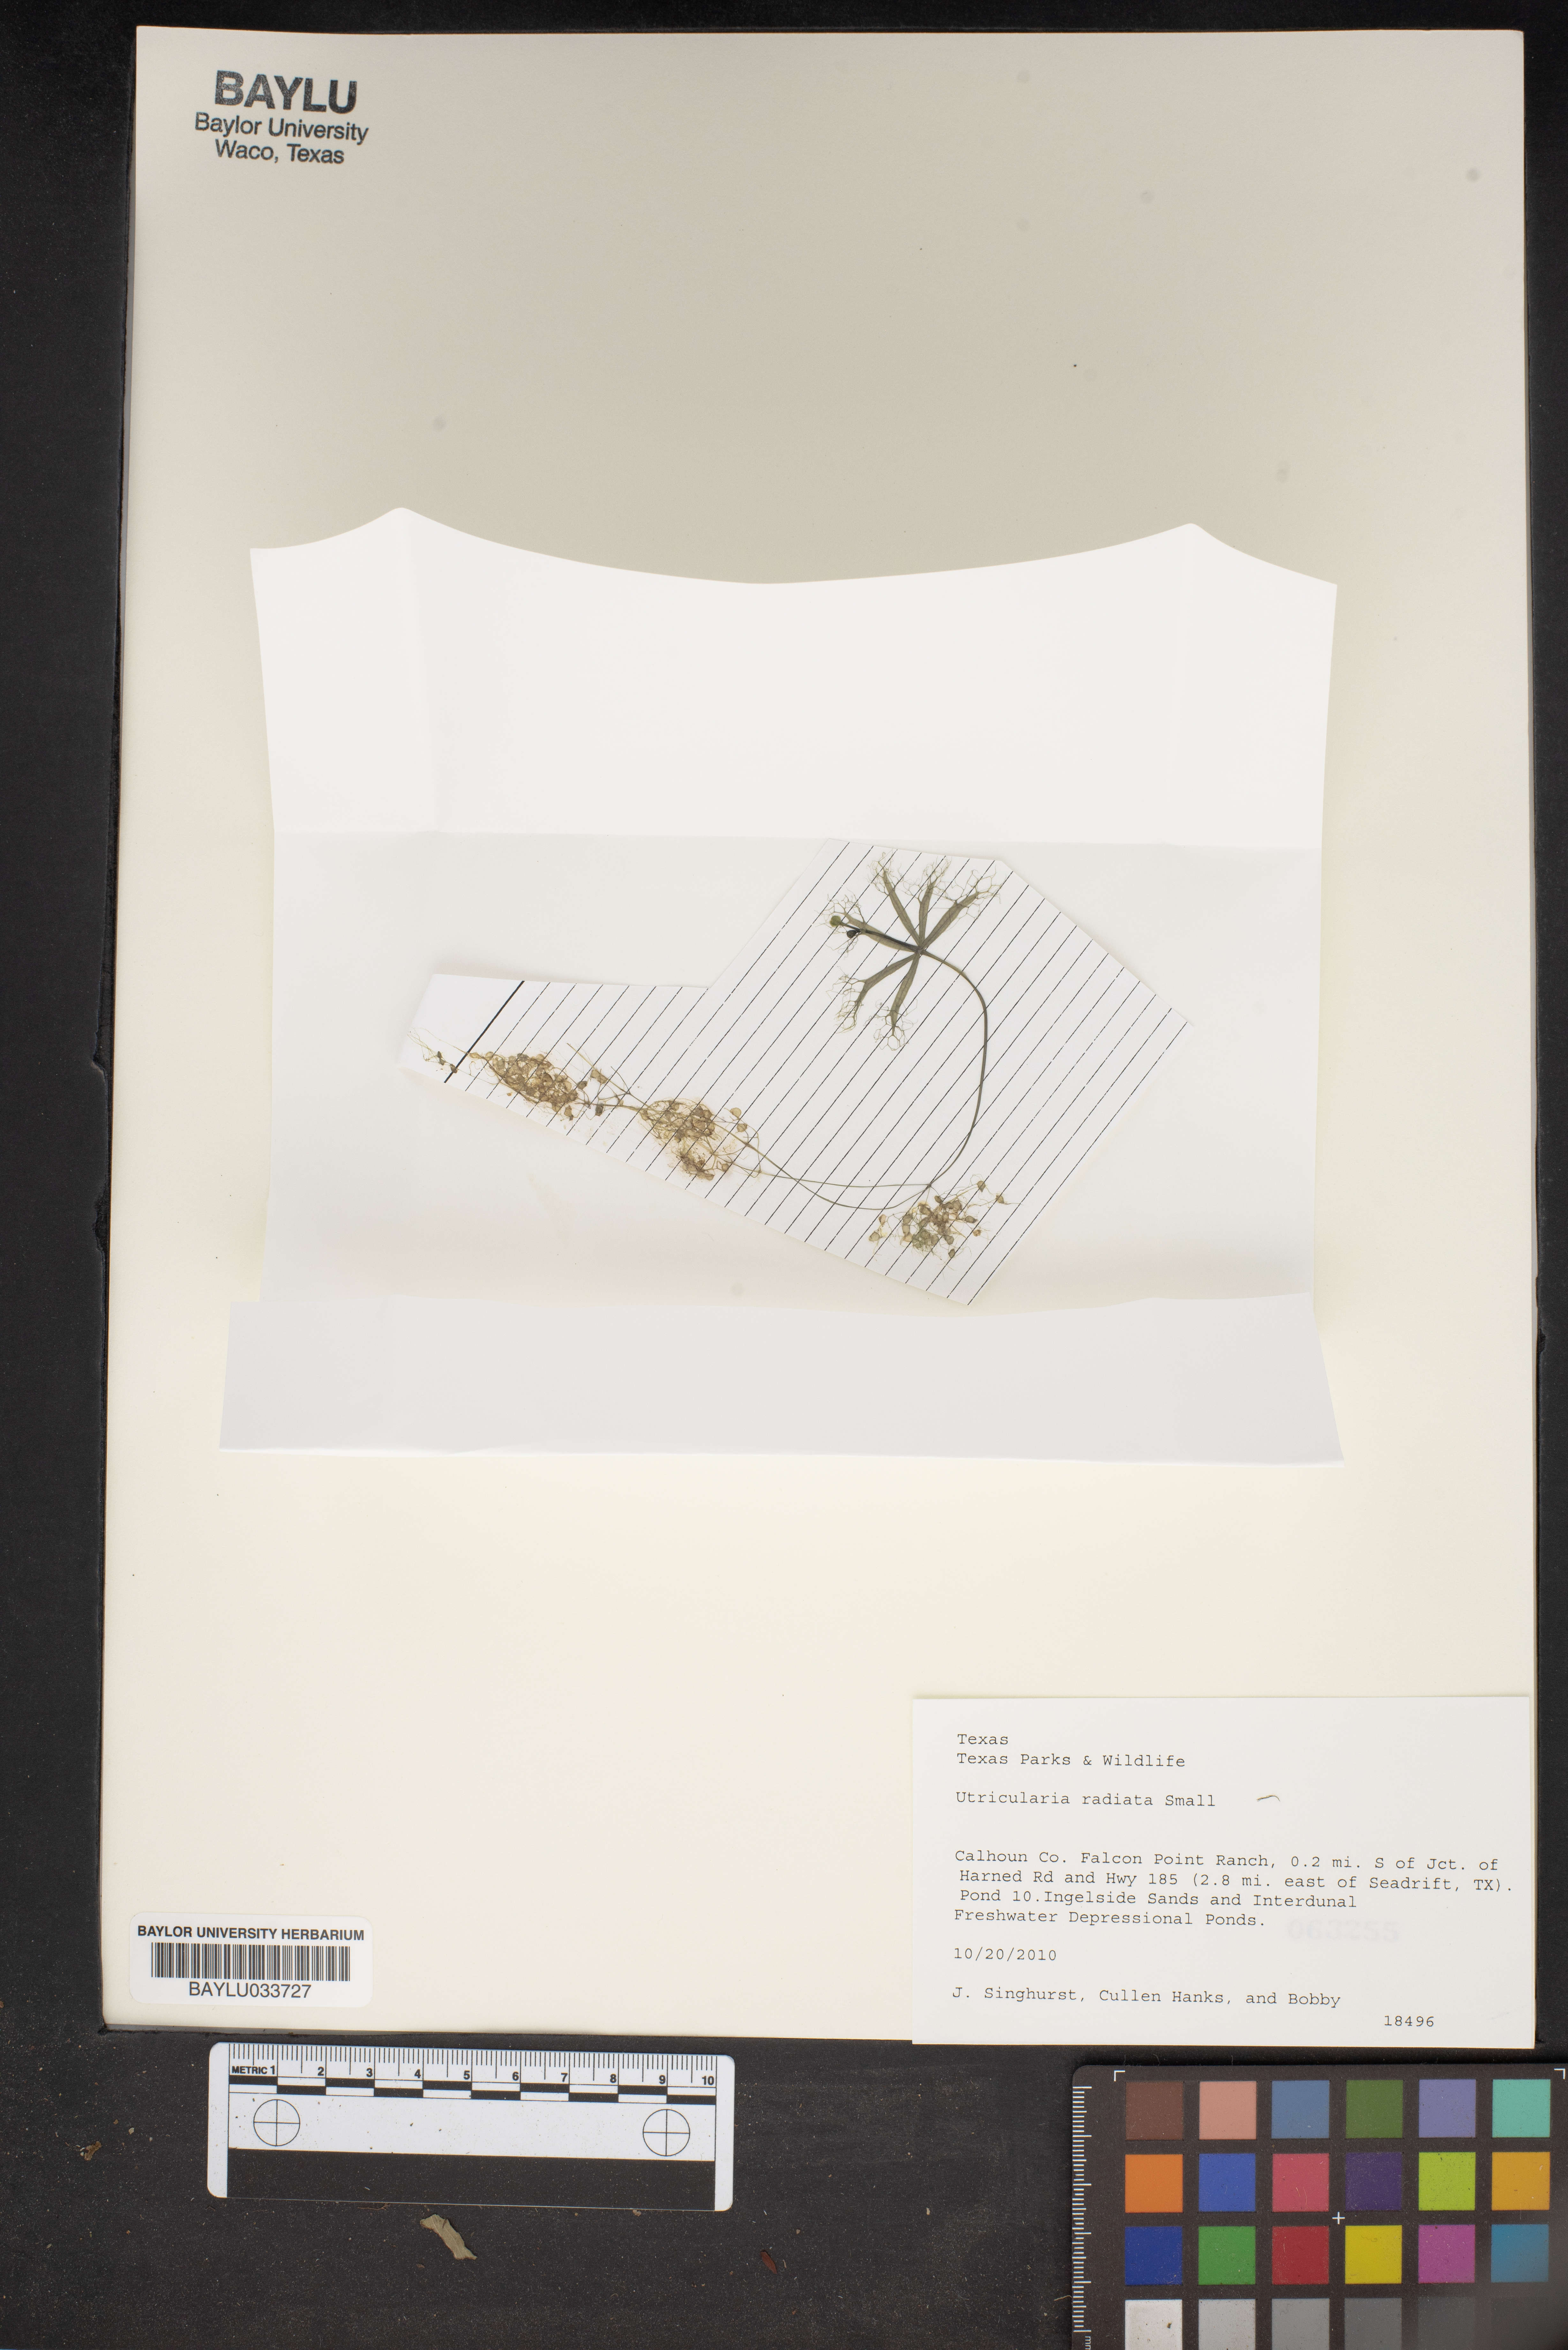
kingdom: Plantae
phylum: Tracheophyta
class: Magnoliopsida
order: Lamiales
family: Lentibulariaceae
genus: Utricularia
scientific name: Utricularia radiata
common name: Floating bladderwort
